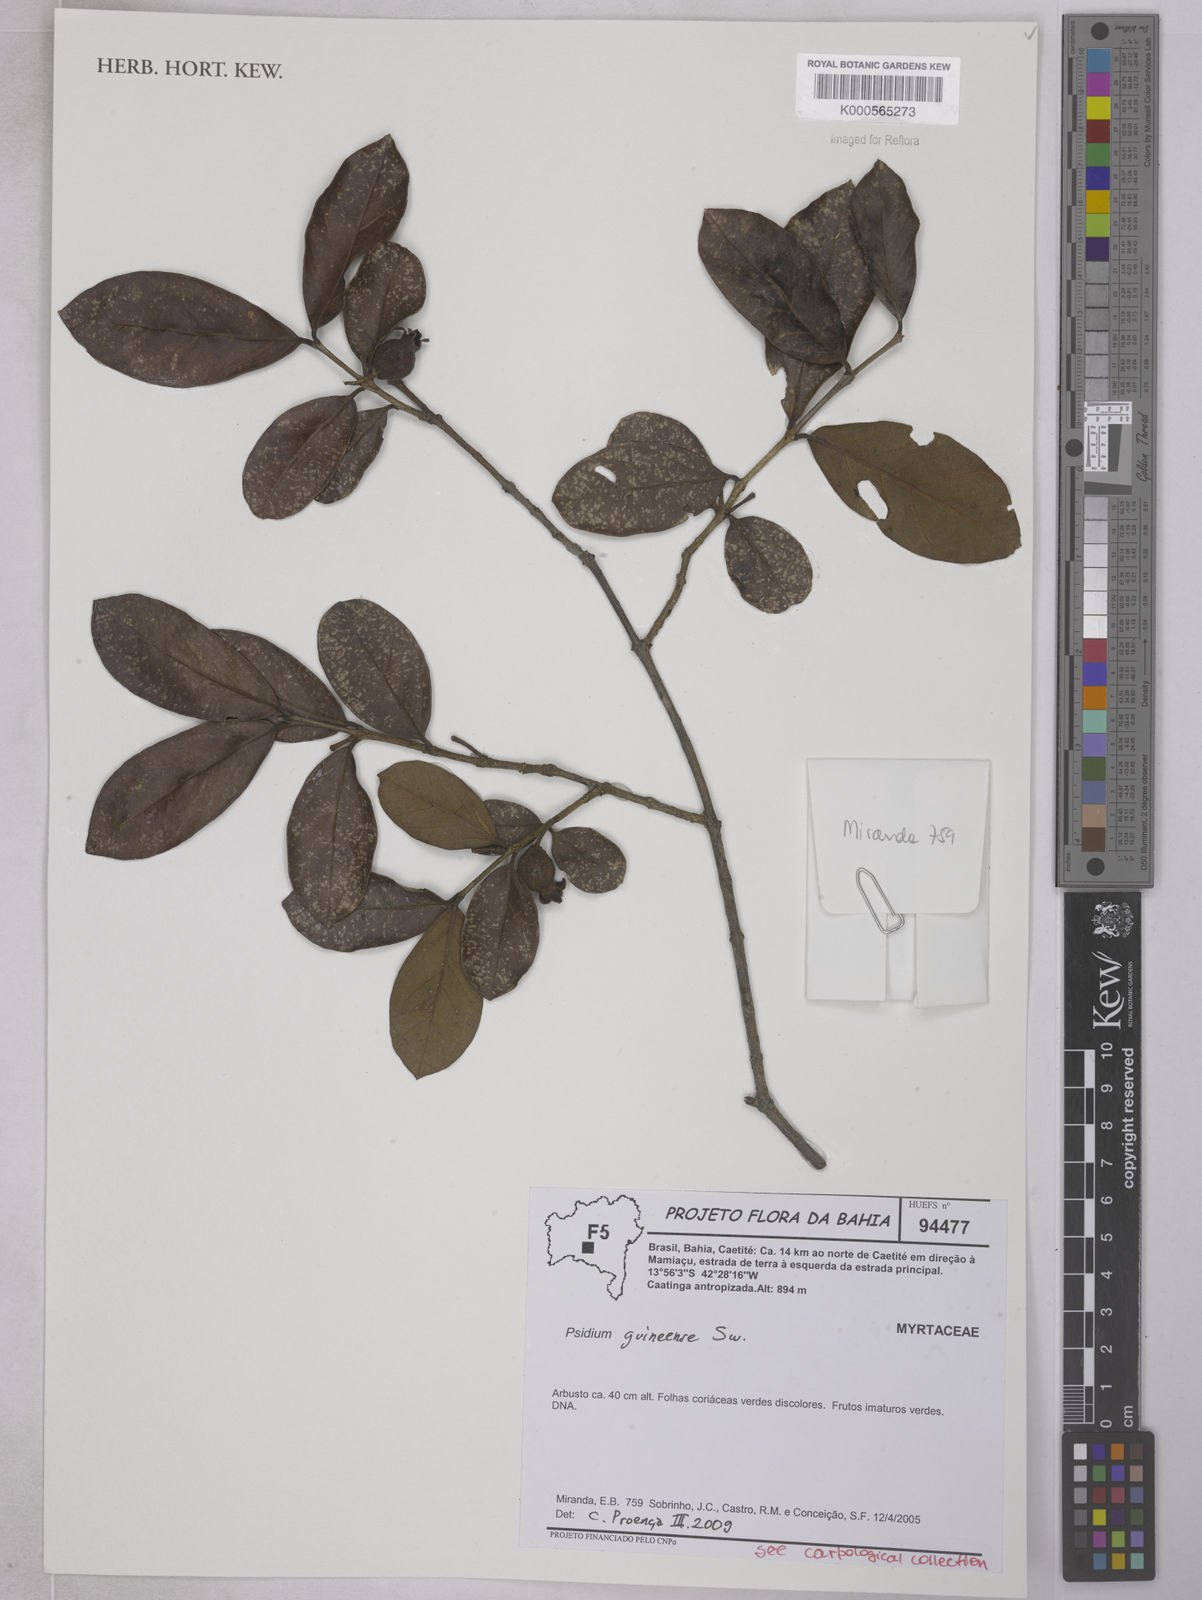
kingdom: Plantae
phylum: Tracheophyta
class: Magnoliopsida
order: Myrtales
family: Myrtaceae
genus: Psidium
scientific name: Psidium
